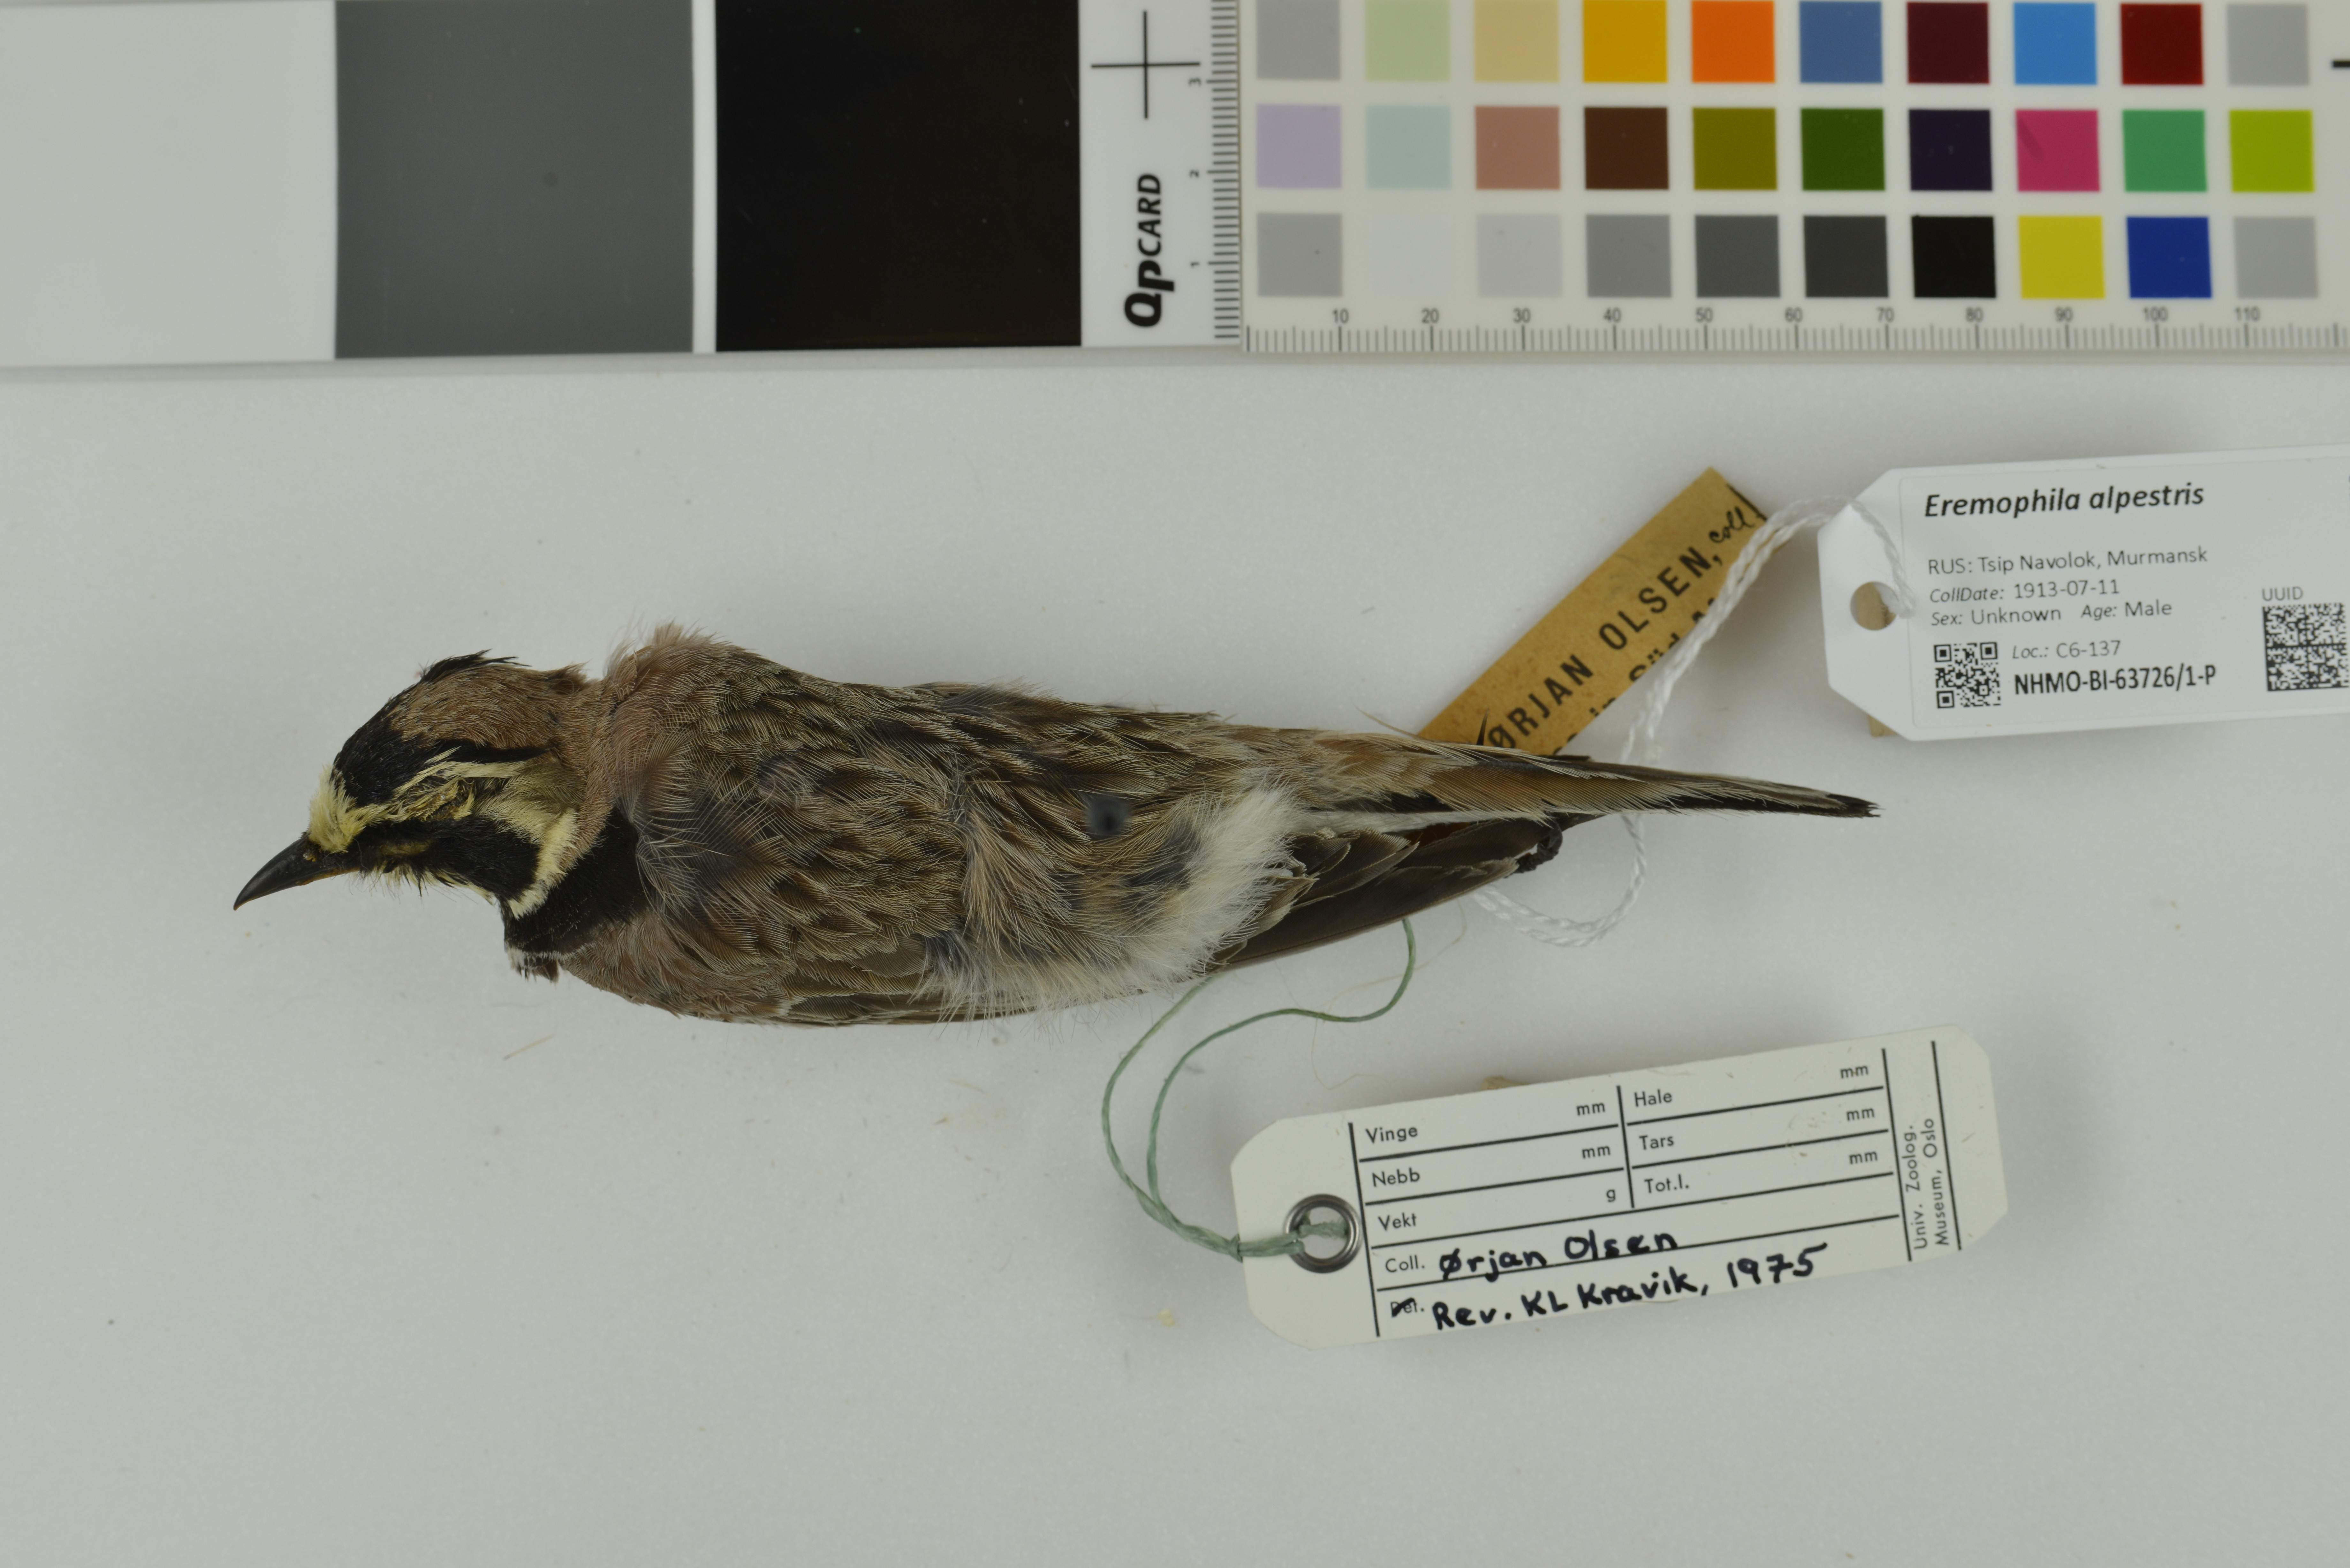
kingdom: Animalia
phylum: Chordata
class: Aves
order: Passeriformes
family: Alaudidae
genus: Eremophila
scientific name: Eremophila alpestris
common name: Horned lark
